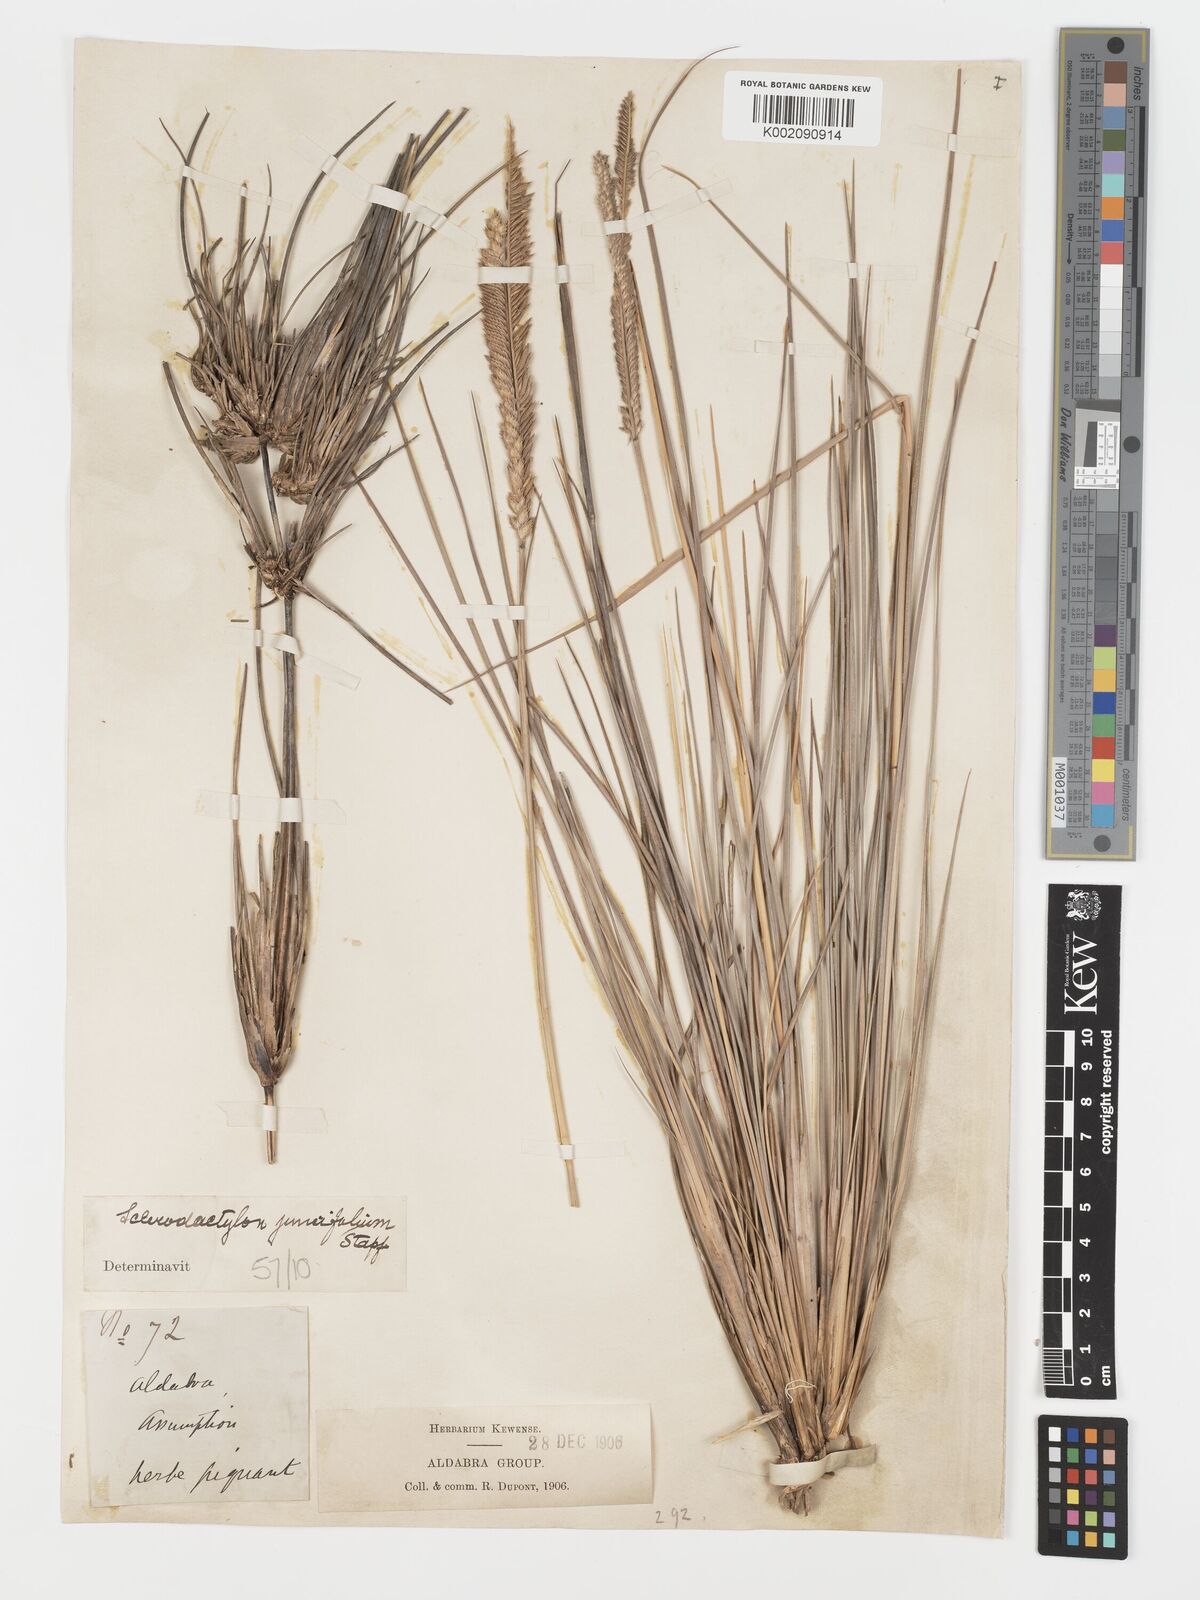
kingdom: Plantae
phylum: Tracheophyta
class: Liliopsida
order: Poales
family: Poaceae
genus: Sclerodactylon
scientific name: Sclerodactylon macrostachyum
